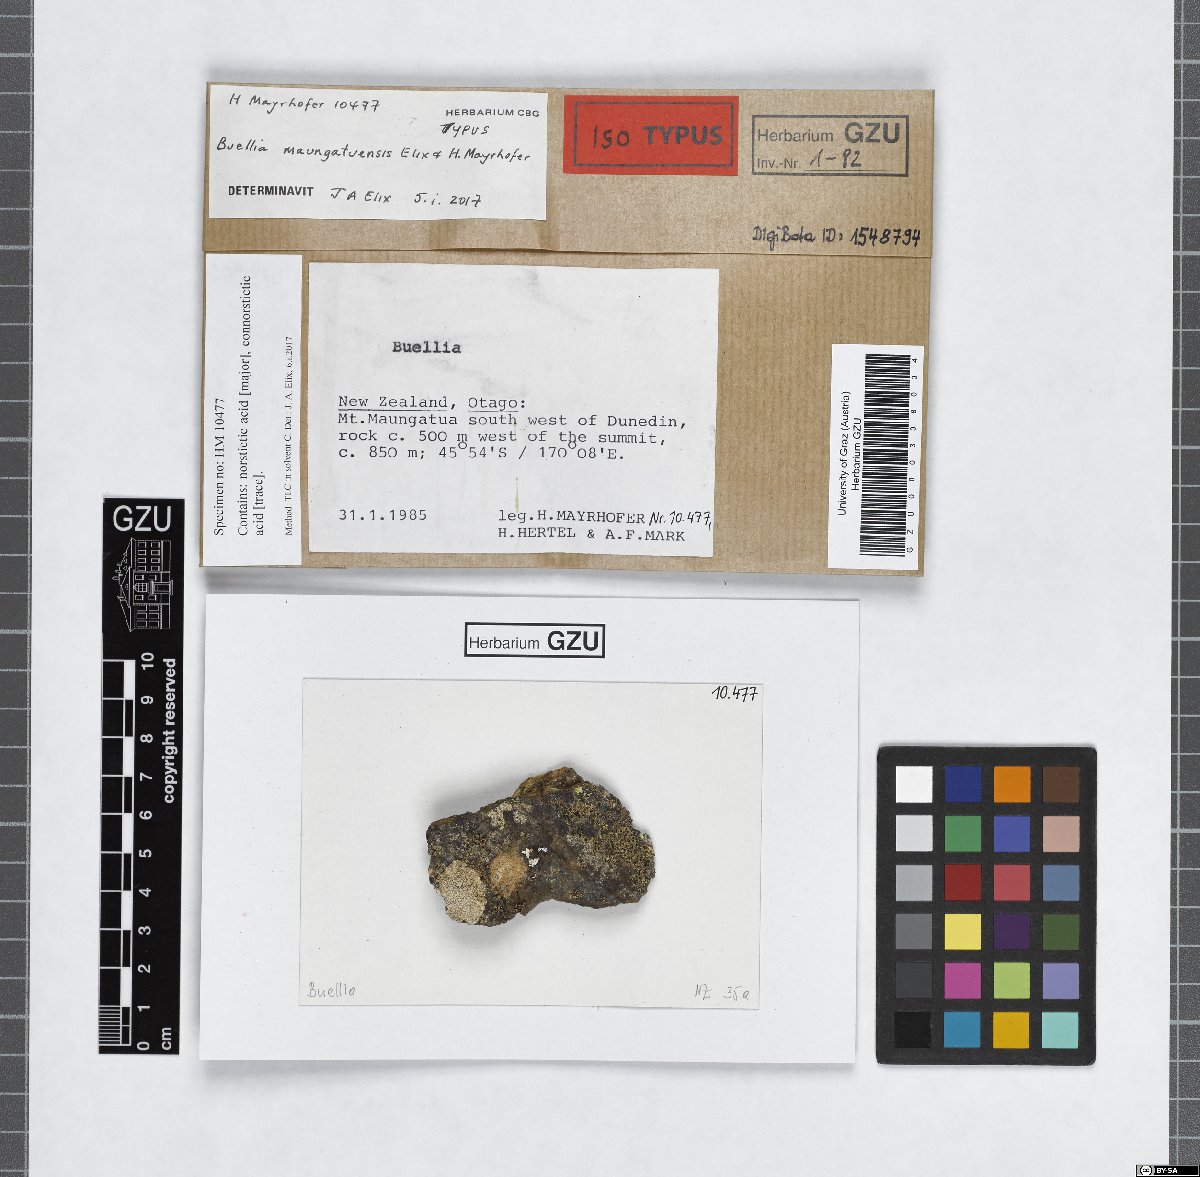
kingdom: Fungi
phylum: Ascomycota
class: Lecanoromycetes
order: Caliciales
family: Caliciaceae
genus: Buellia
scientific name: Buellia maungatuensis
